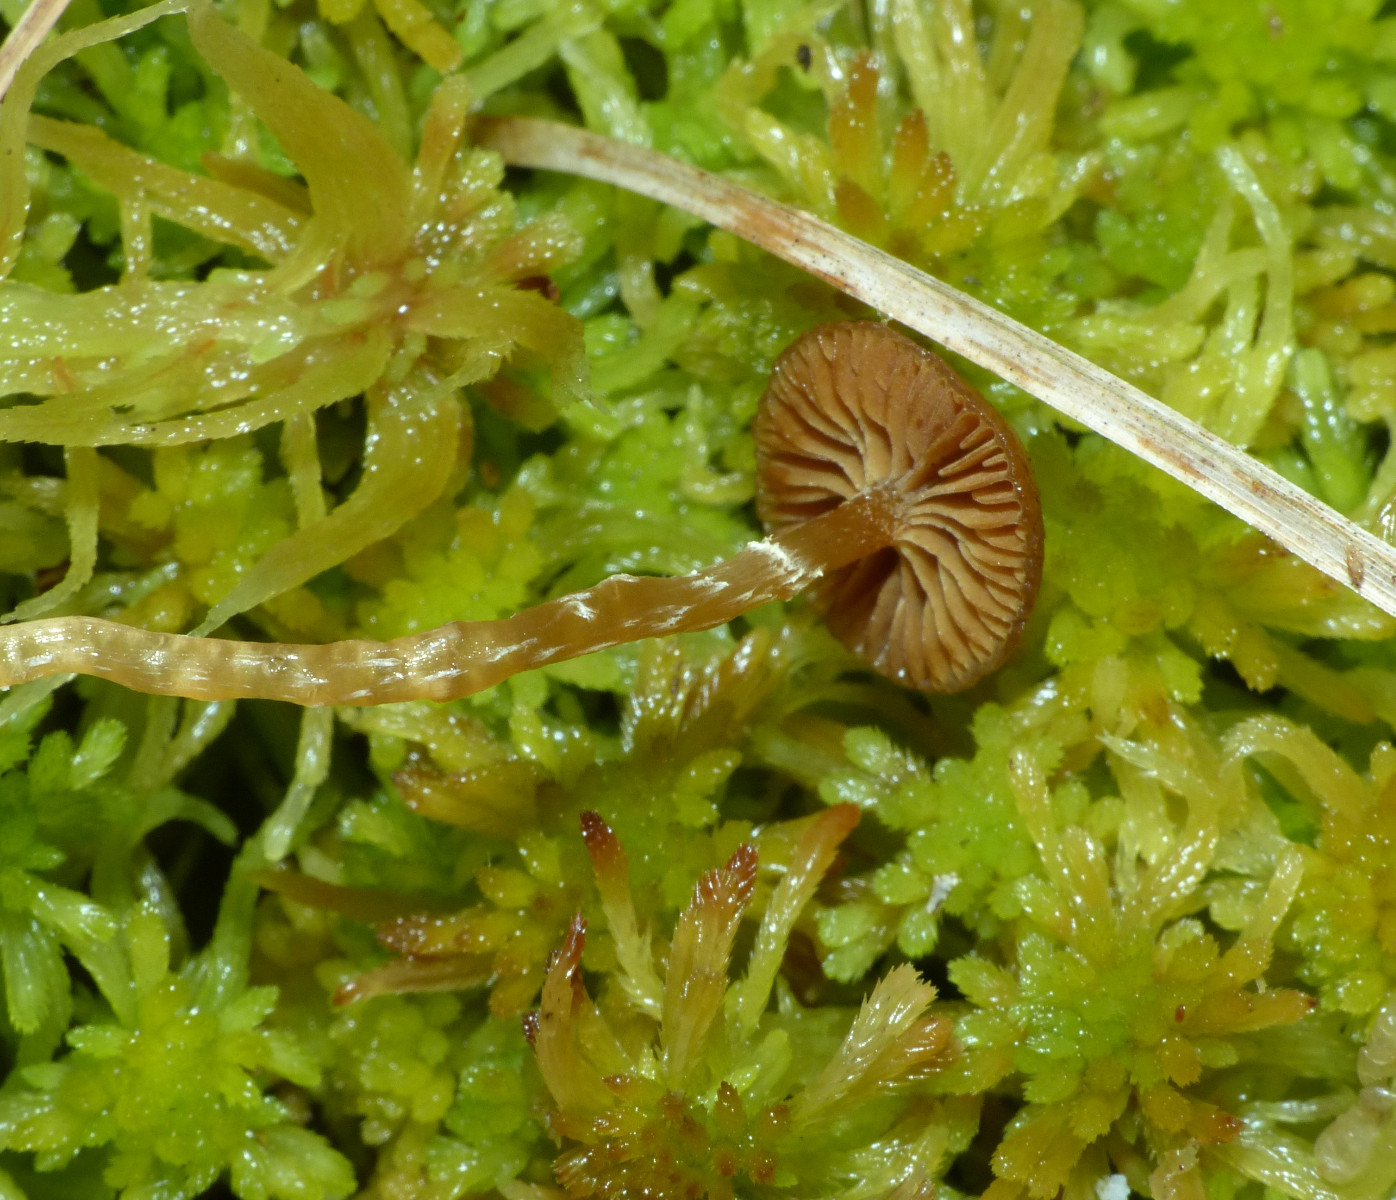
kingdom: Fungi
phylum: Basidiomycota
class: Agaricomycetes
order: Agaricales
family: Hymenogastraceae
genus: Galerina
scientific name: Galerina paludosa
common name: mose-hjelmhat
